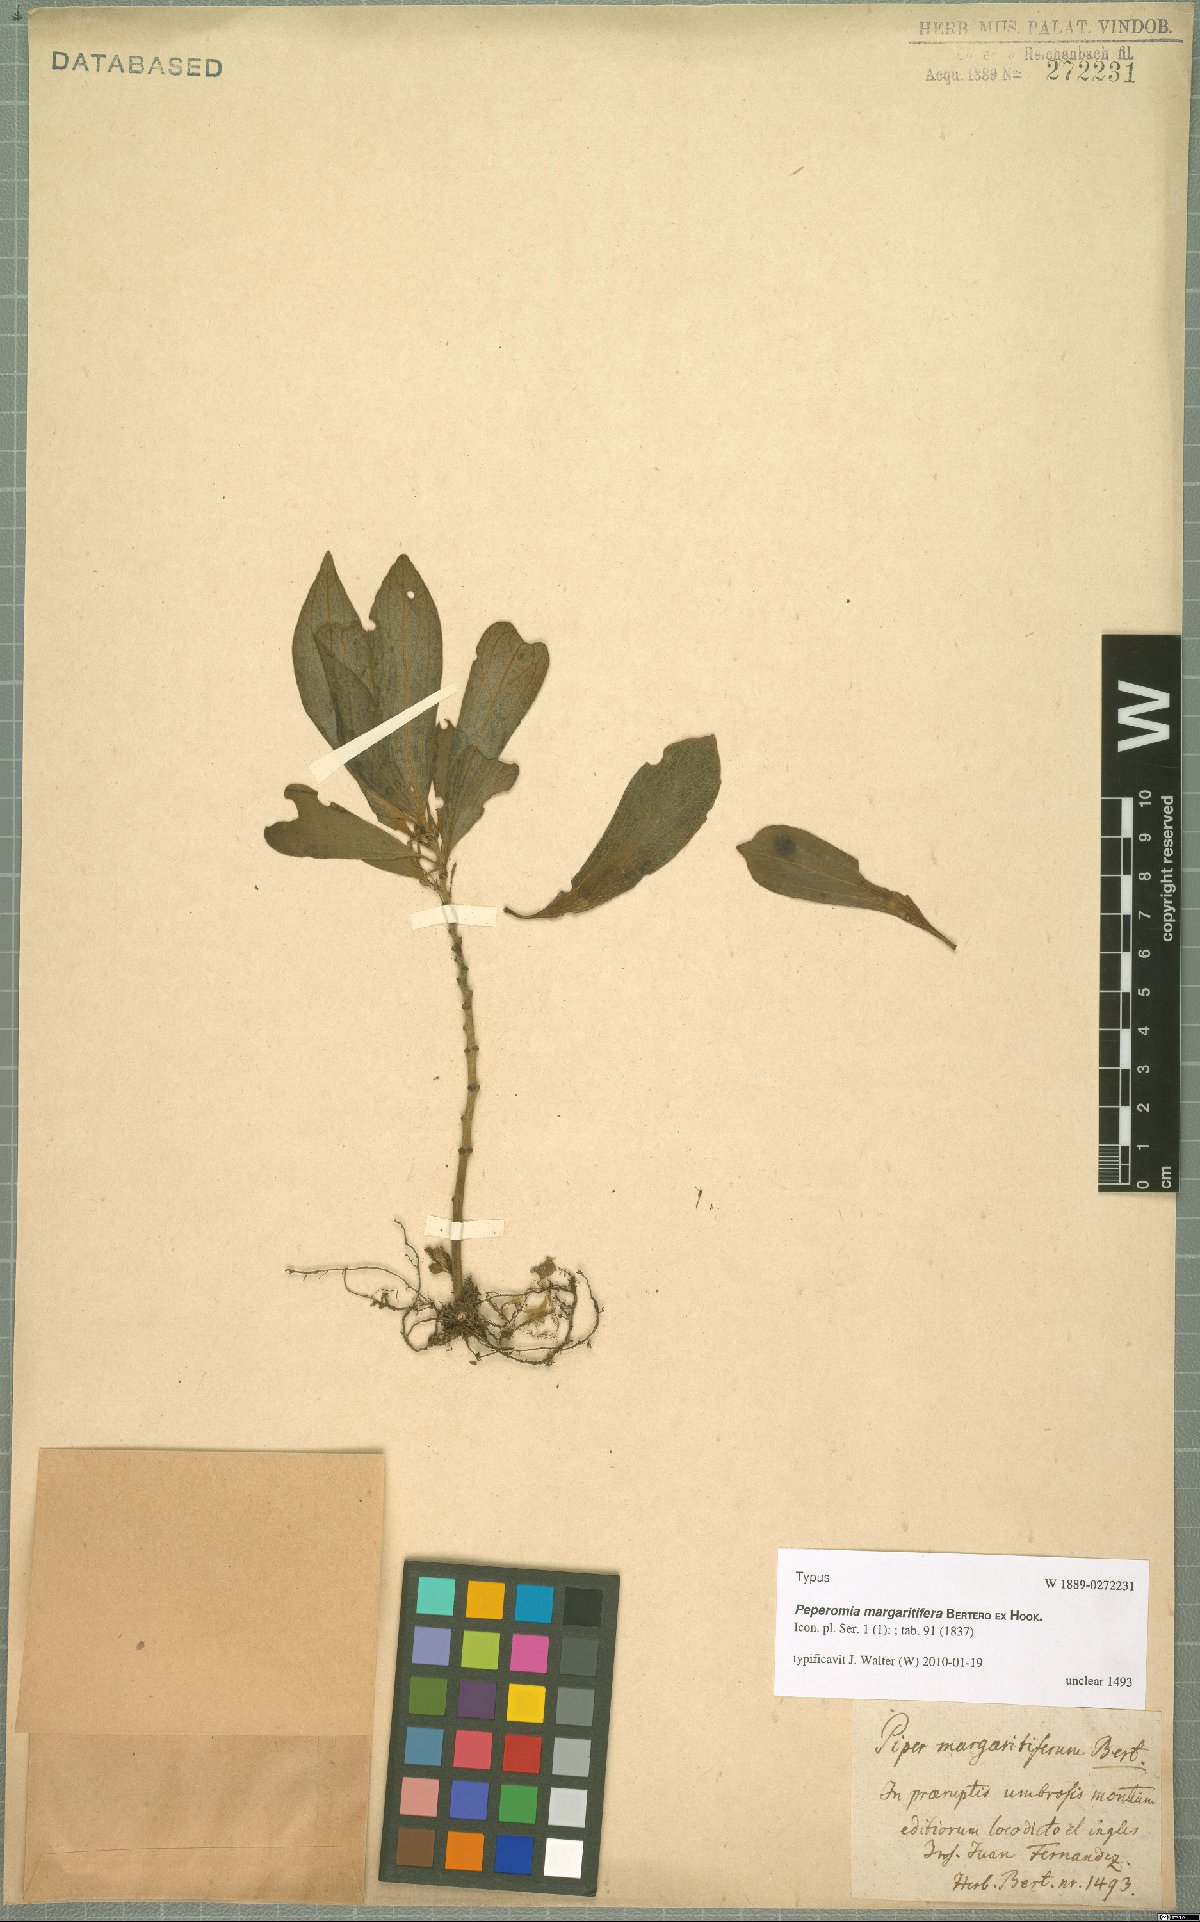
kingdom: Plantae
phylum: Tracheophyta
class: Magnoliopsida
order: Piperales
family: Piperaceae
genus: Peperomia
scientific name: Peperomia margaritifera
